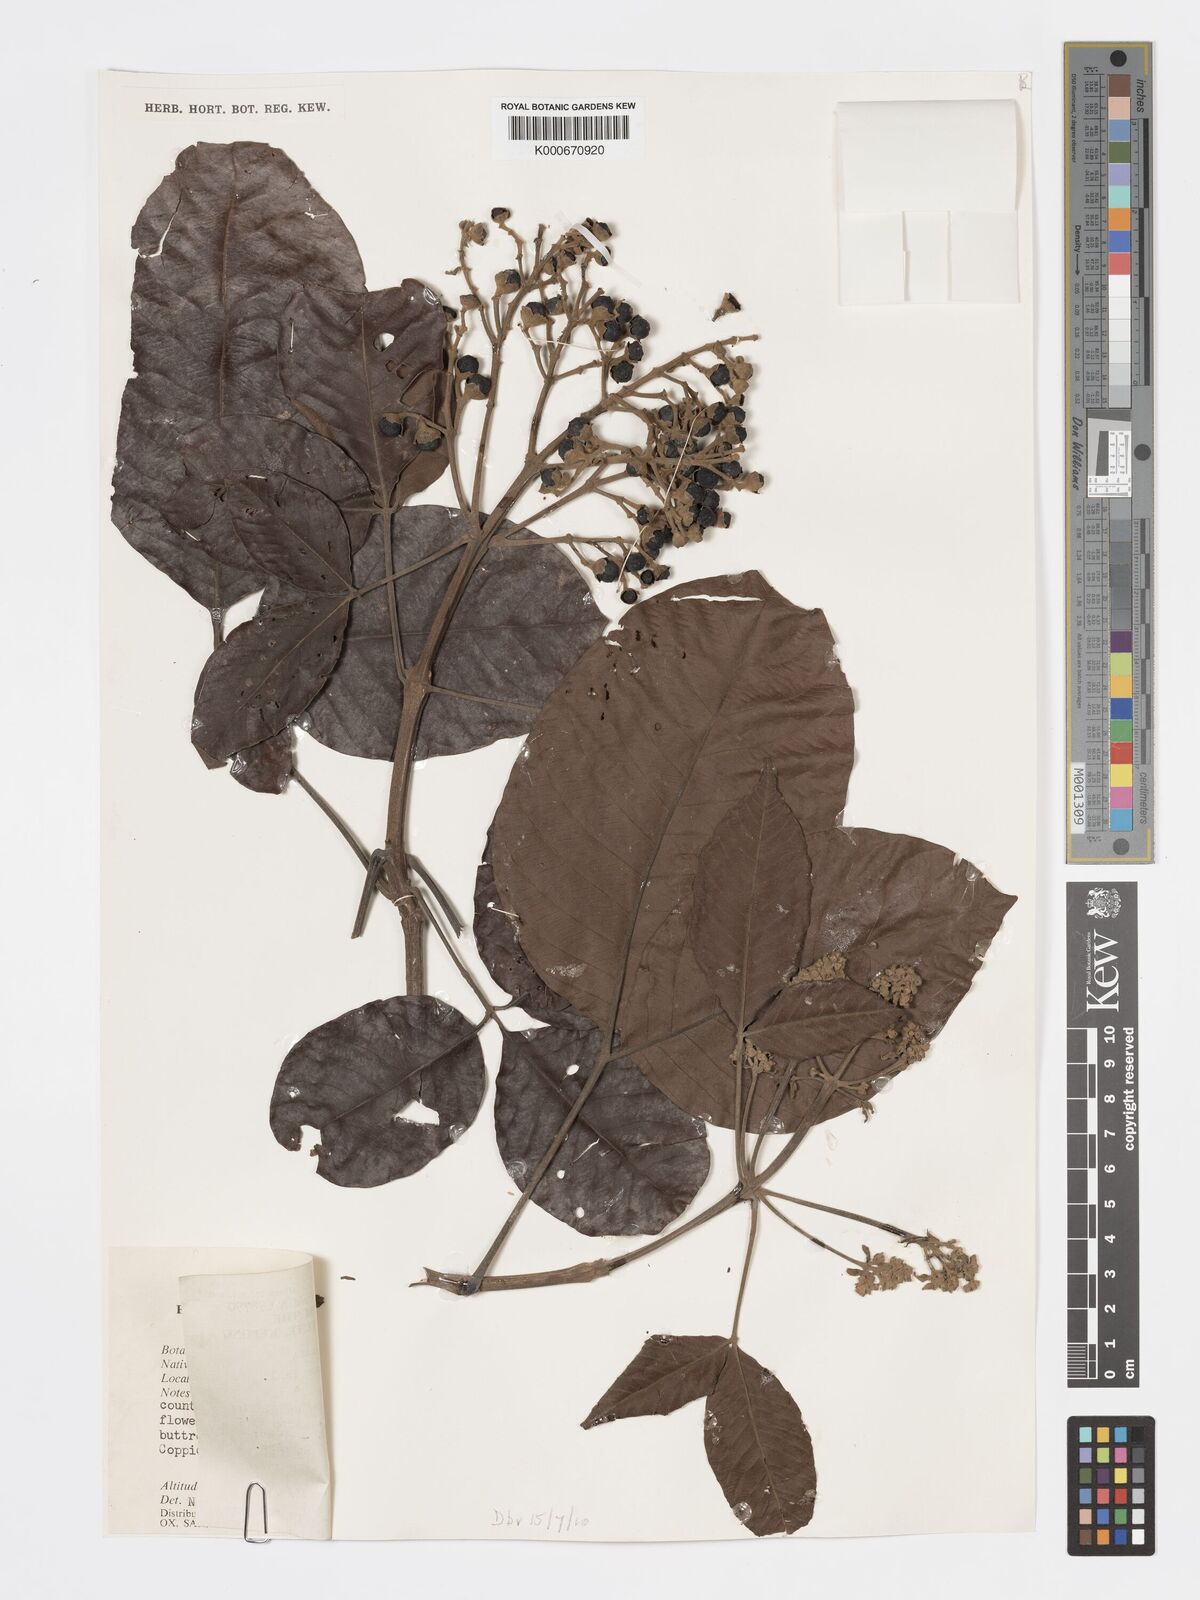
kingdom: Plantae
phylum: Tracheophyta
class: Magnoliopsida
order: Lamiales
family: Lamiaceae
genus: Vitex
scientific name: Vitex pinnata
